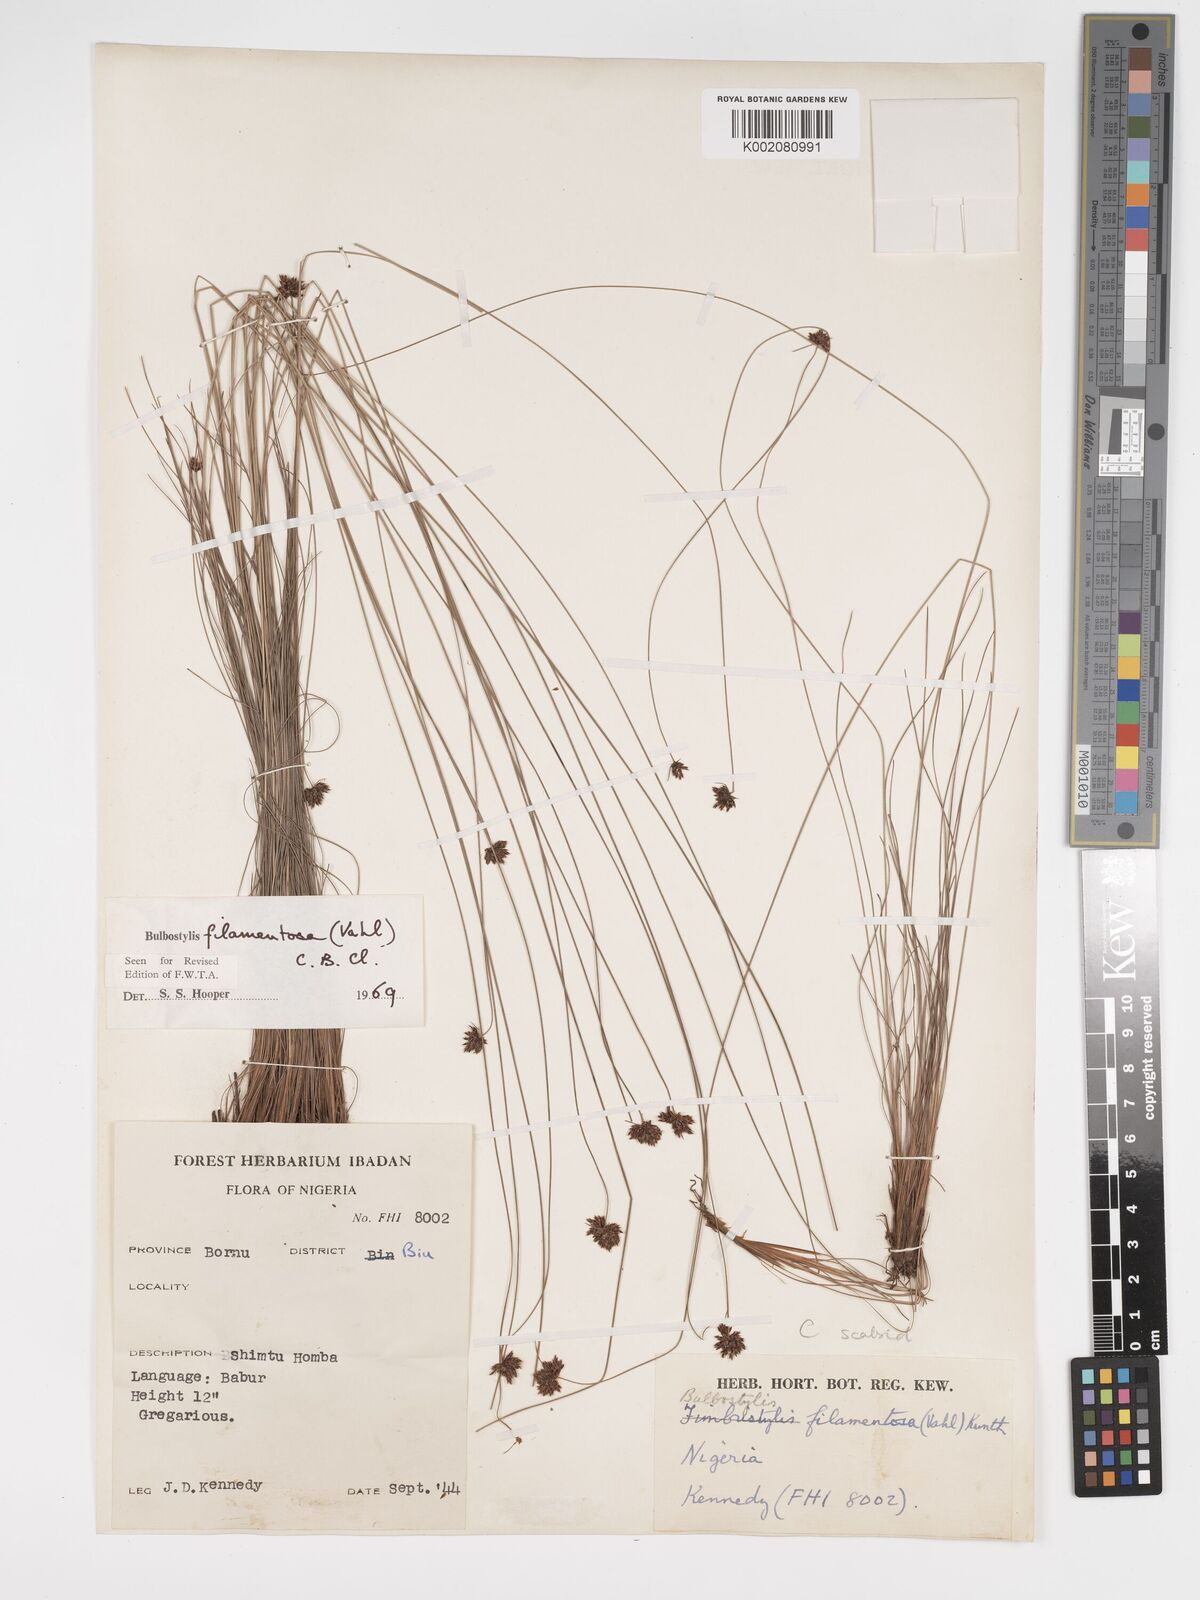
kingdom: Plantae
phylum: Tracheophyta
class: Liliopsida
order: Poales
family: Cyperaceae
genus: Bulbostylis
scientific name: Bulbostylis filamentosa
